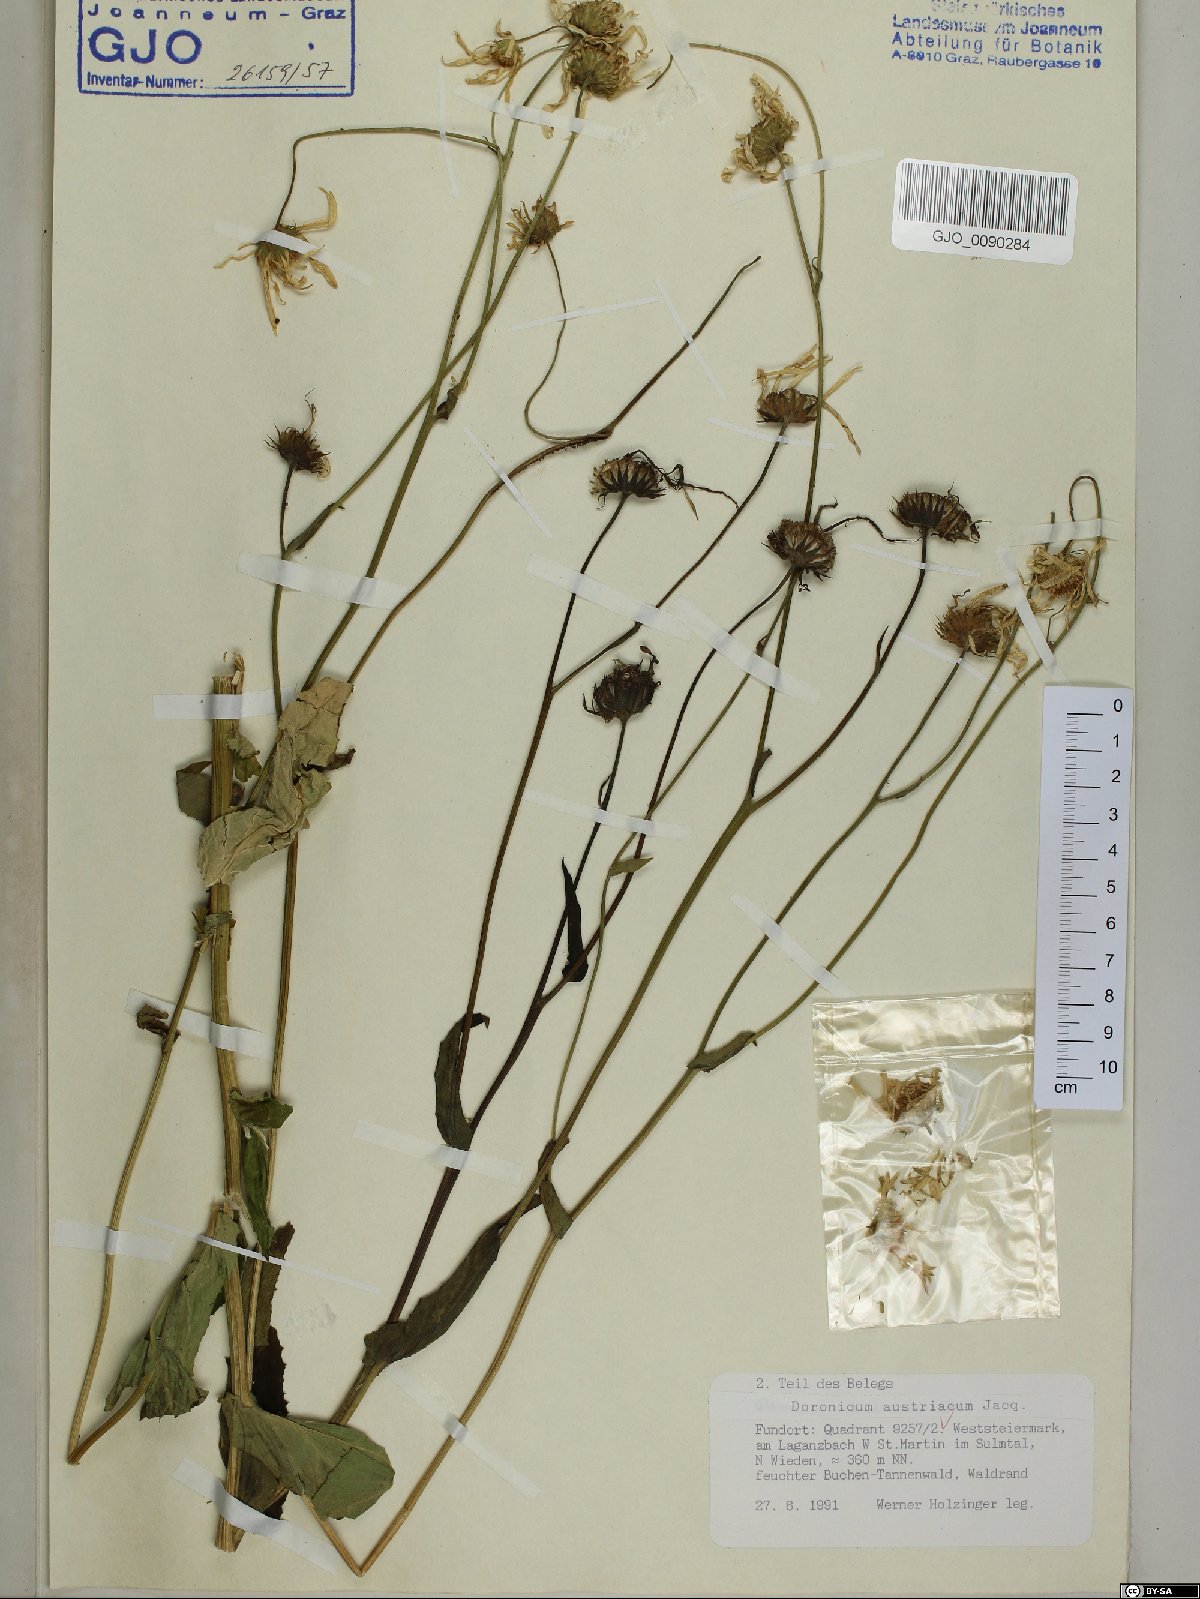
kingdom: Plantae
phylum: Tracheophyta
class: Magnoliopsida
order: Asterales
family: Asteraceae
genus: Doronicum
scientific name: Doronicum austriacum
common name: Austrian leopard's-bane
